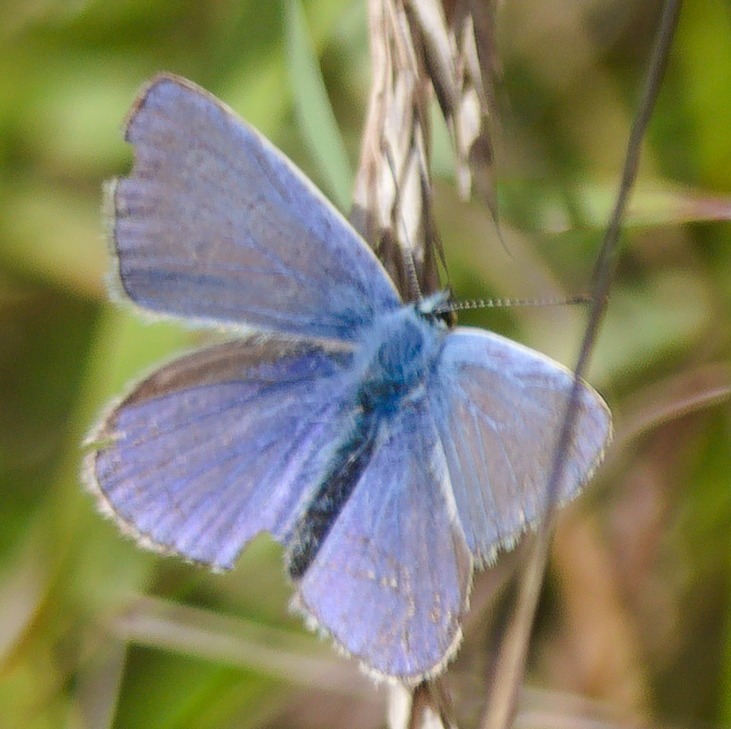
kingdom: Animalia
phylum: Arthropoda
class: Insecta
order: Lepidoptera
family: Lycaenidae
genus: Polyommatus
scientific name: Polyommatus icarus
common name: Almindelig blåfugl
